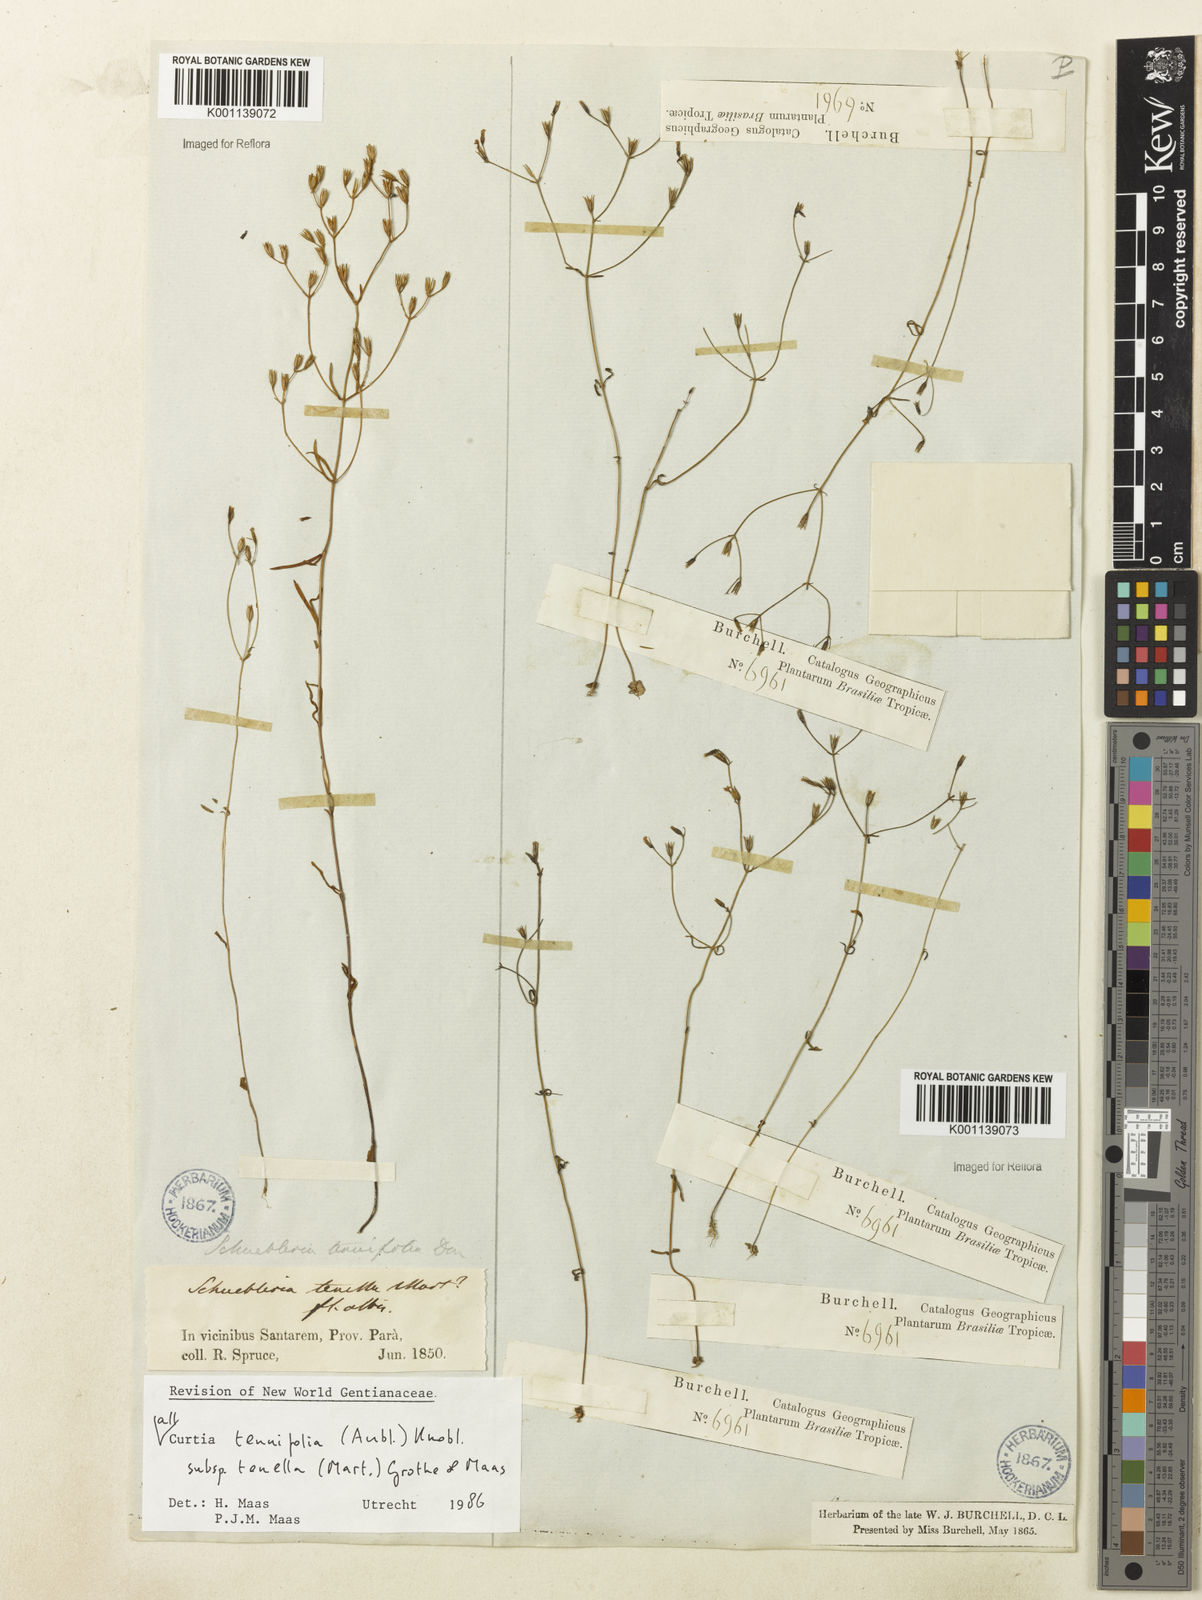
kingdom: Plantae
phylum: Tracheophyta
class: Magnoliopsida
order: Gentianales
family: Gentianaceae
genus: Curtia
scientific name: Curtia tenella
